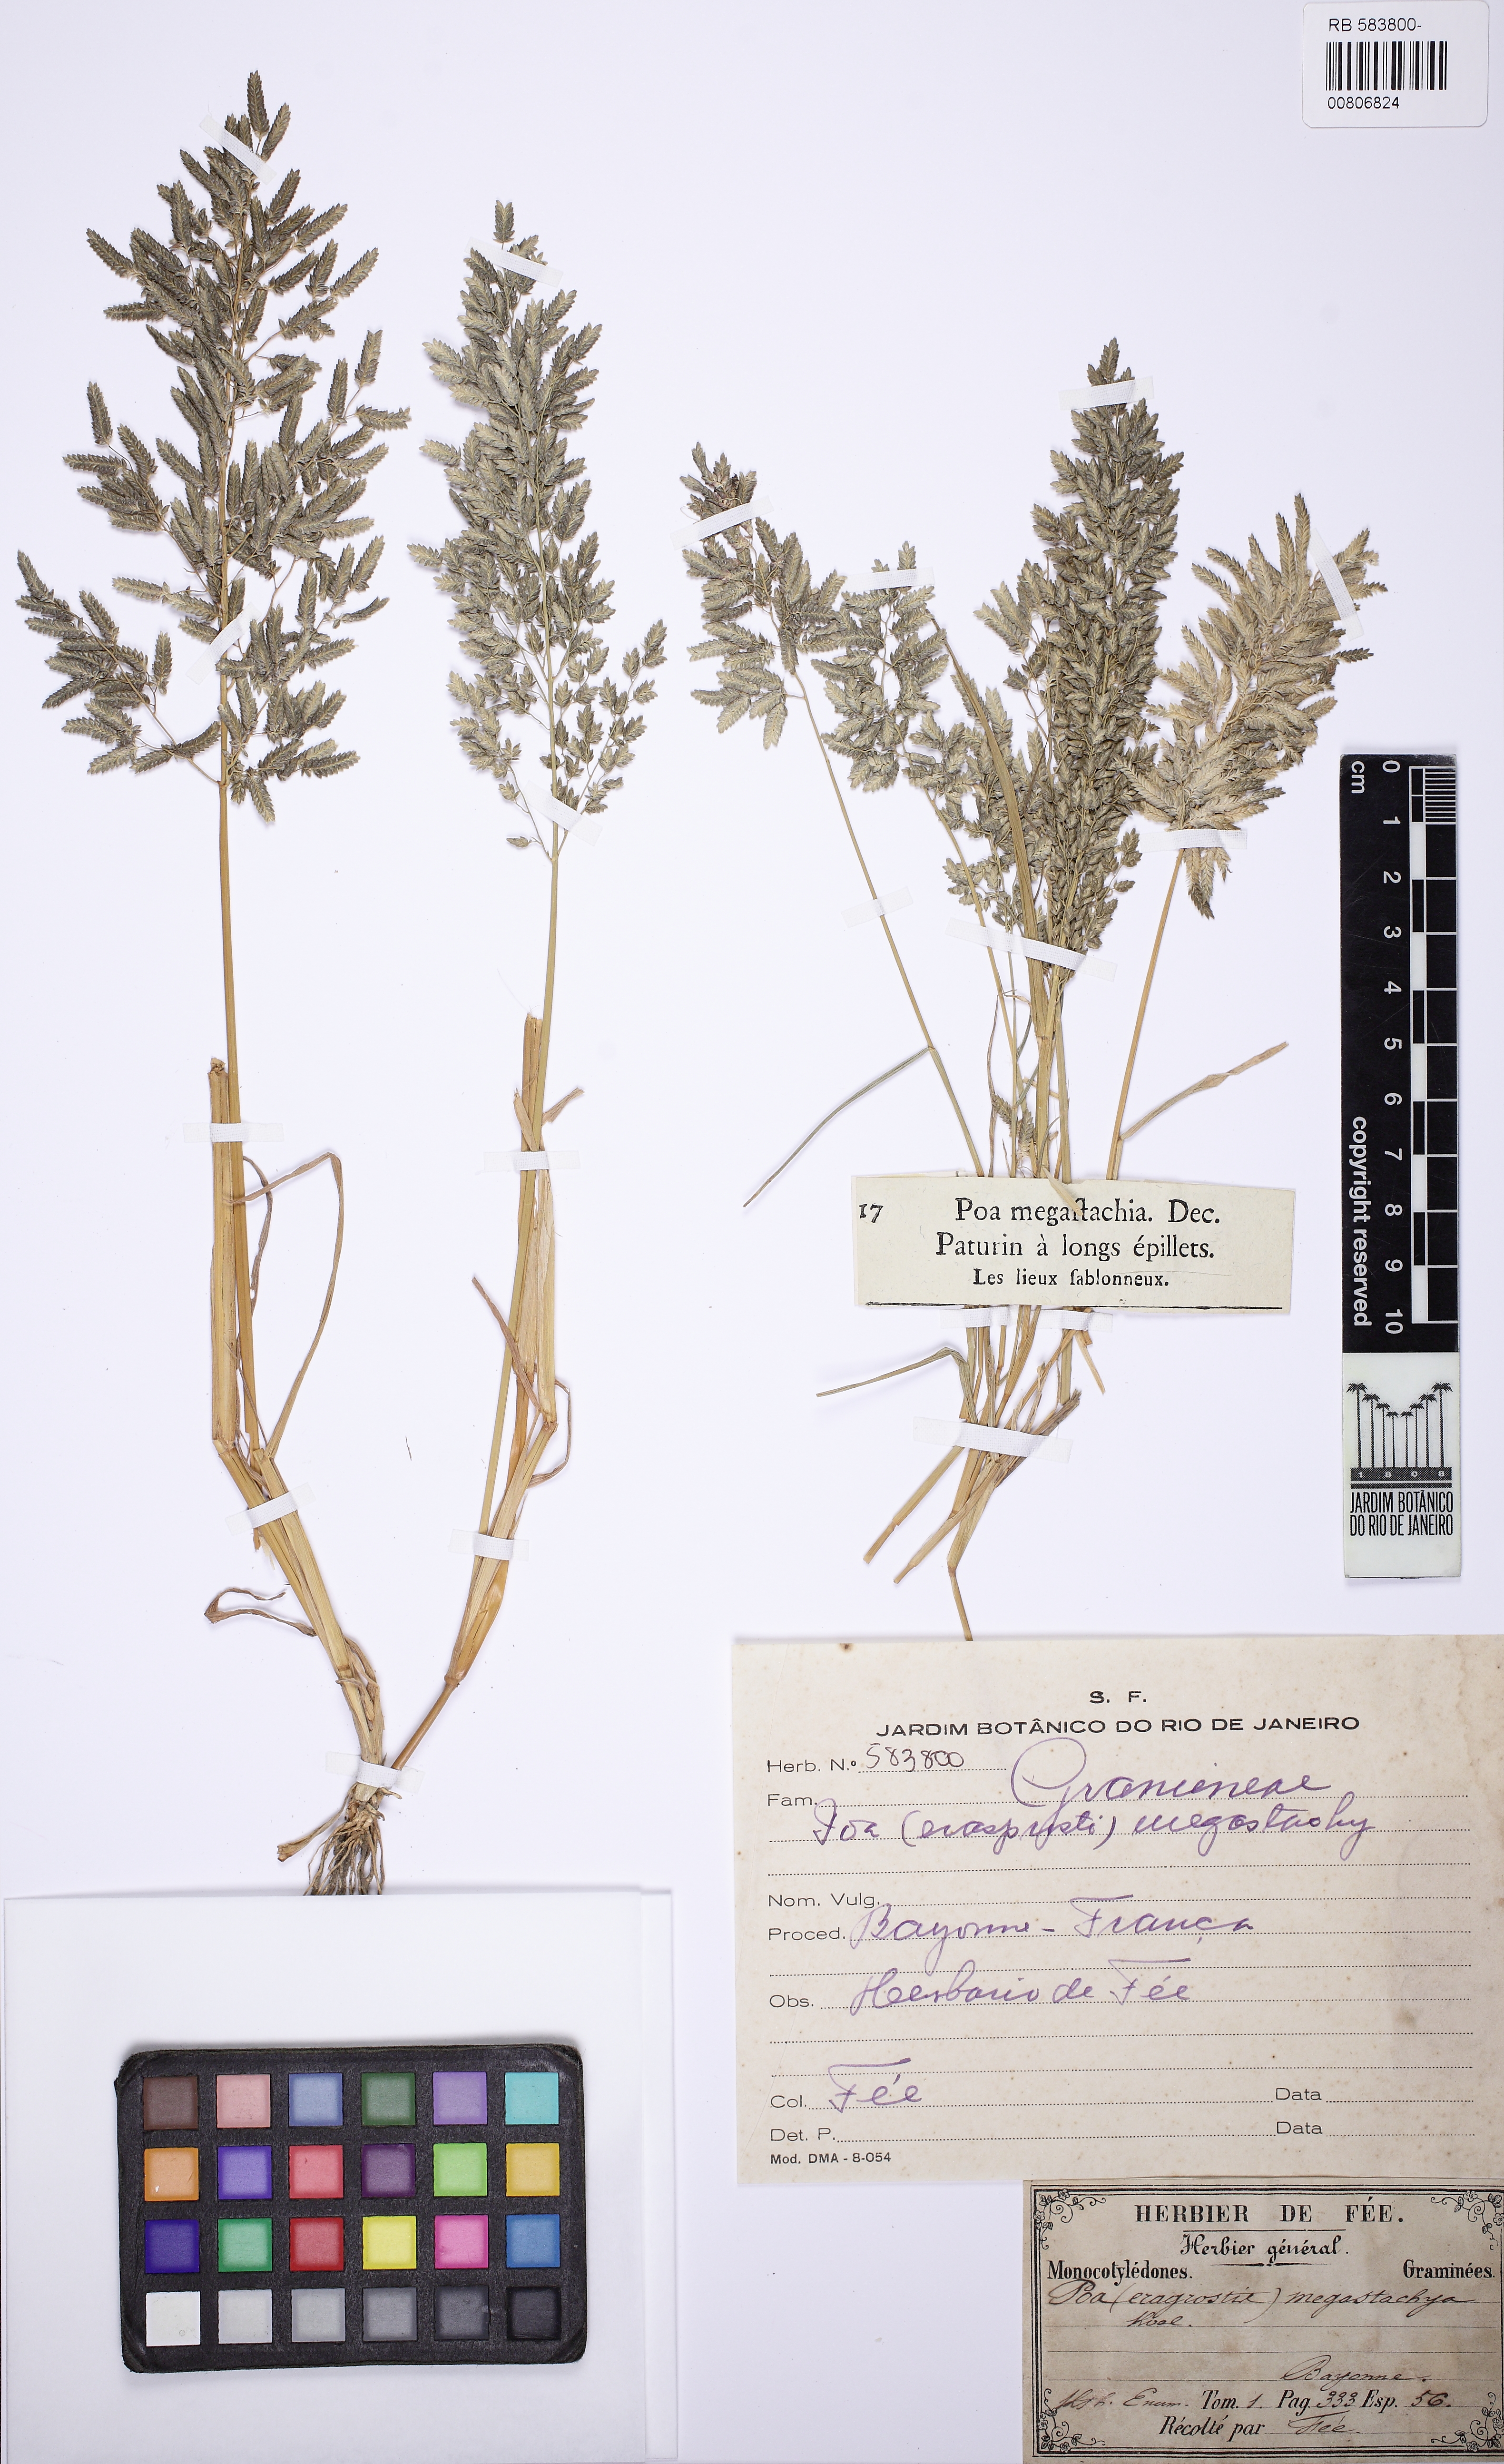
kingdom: Plantae
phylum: Tracheophyta
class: Liliopsida
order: Poales
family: Poaceae
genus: Eragrostis
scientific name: Eragrostis cilianensis
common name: Stinkgrass
